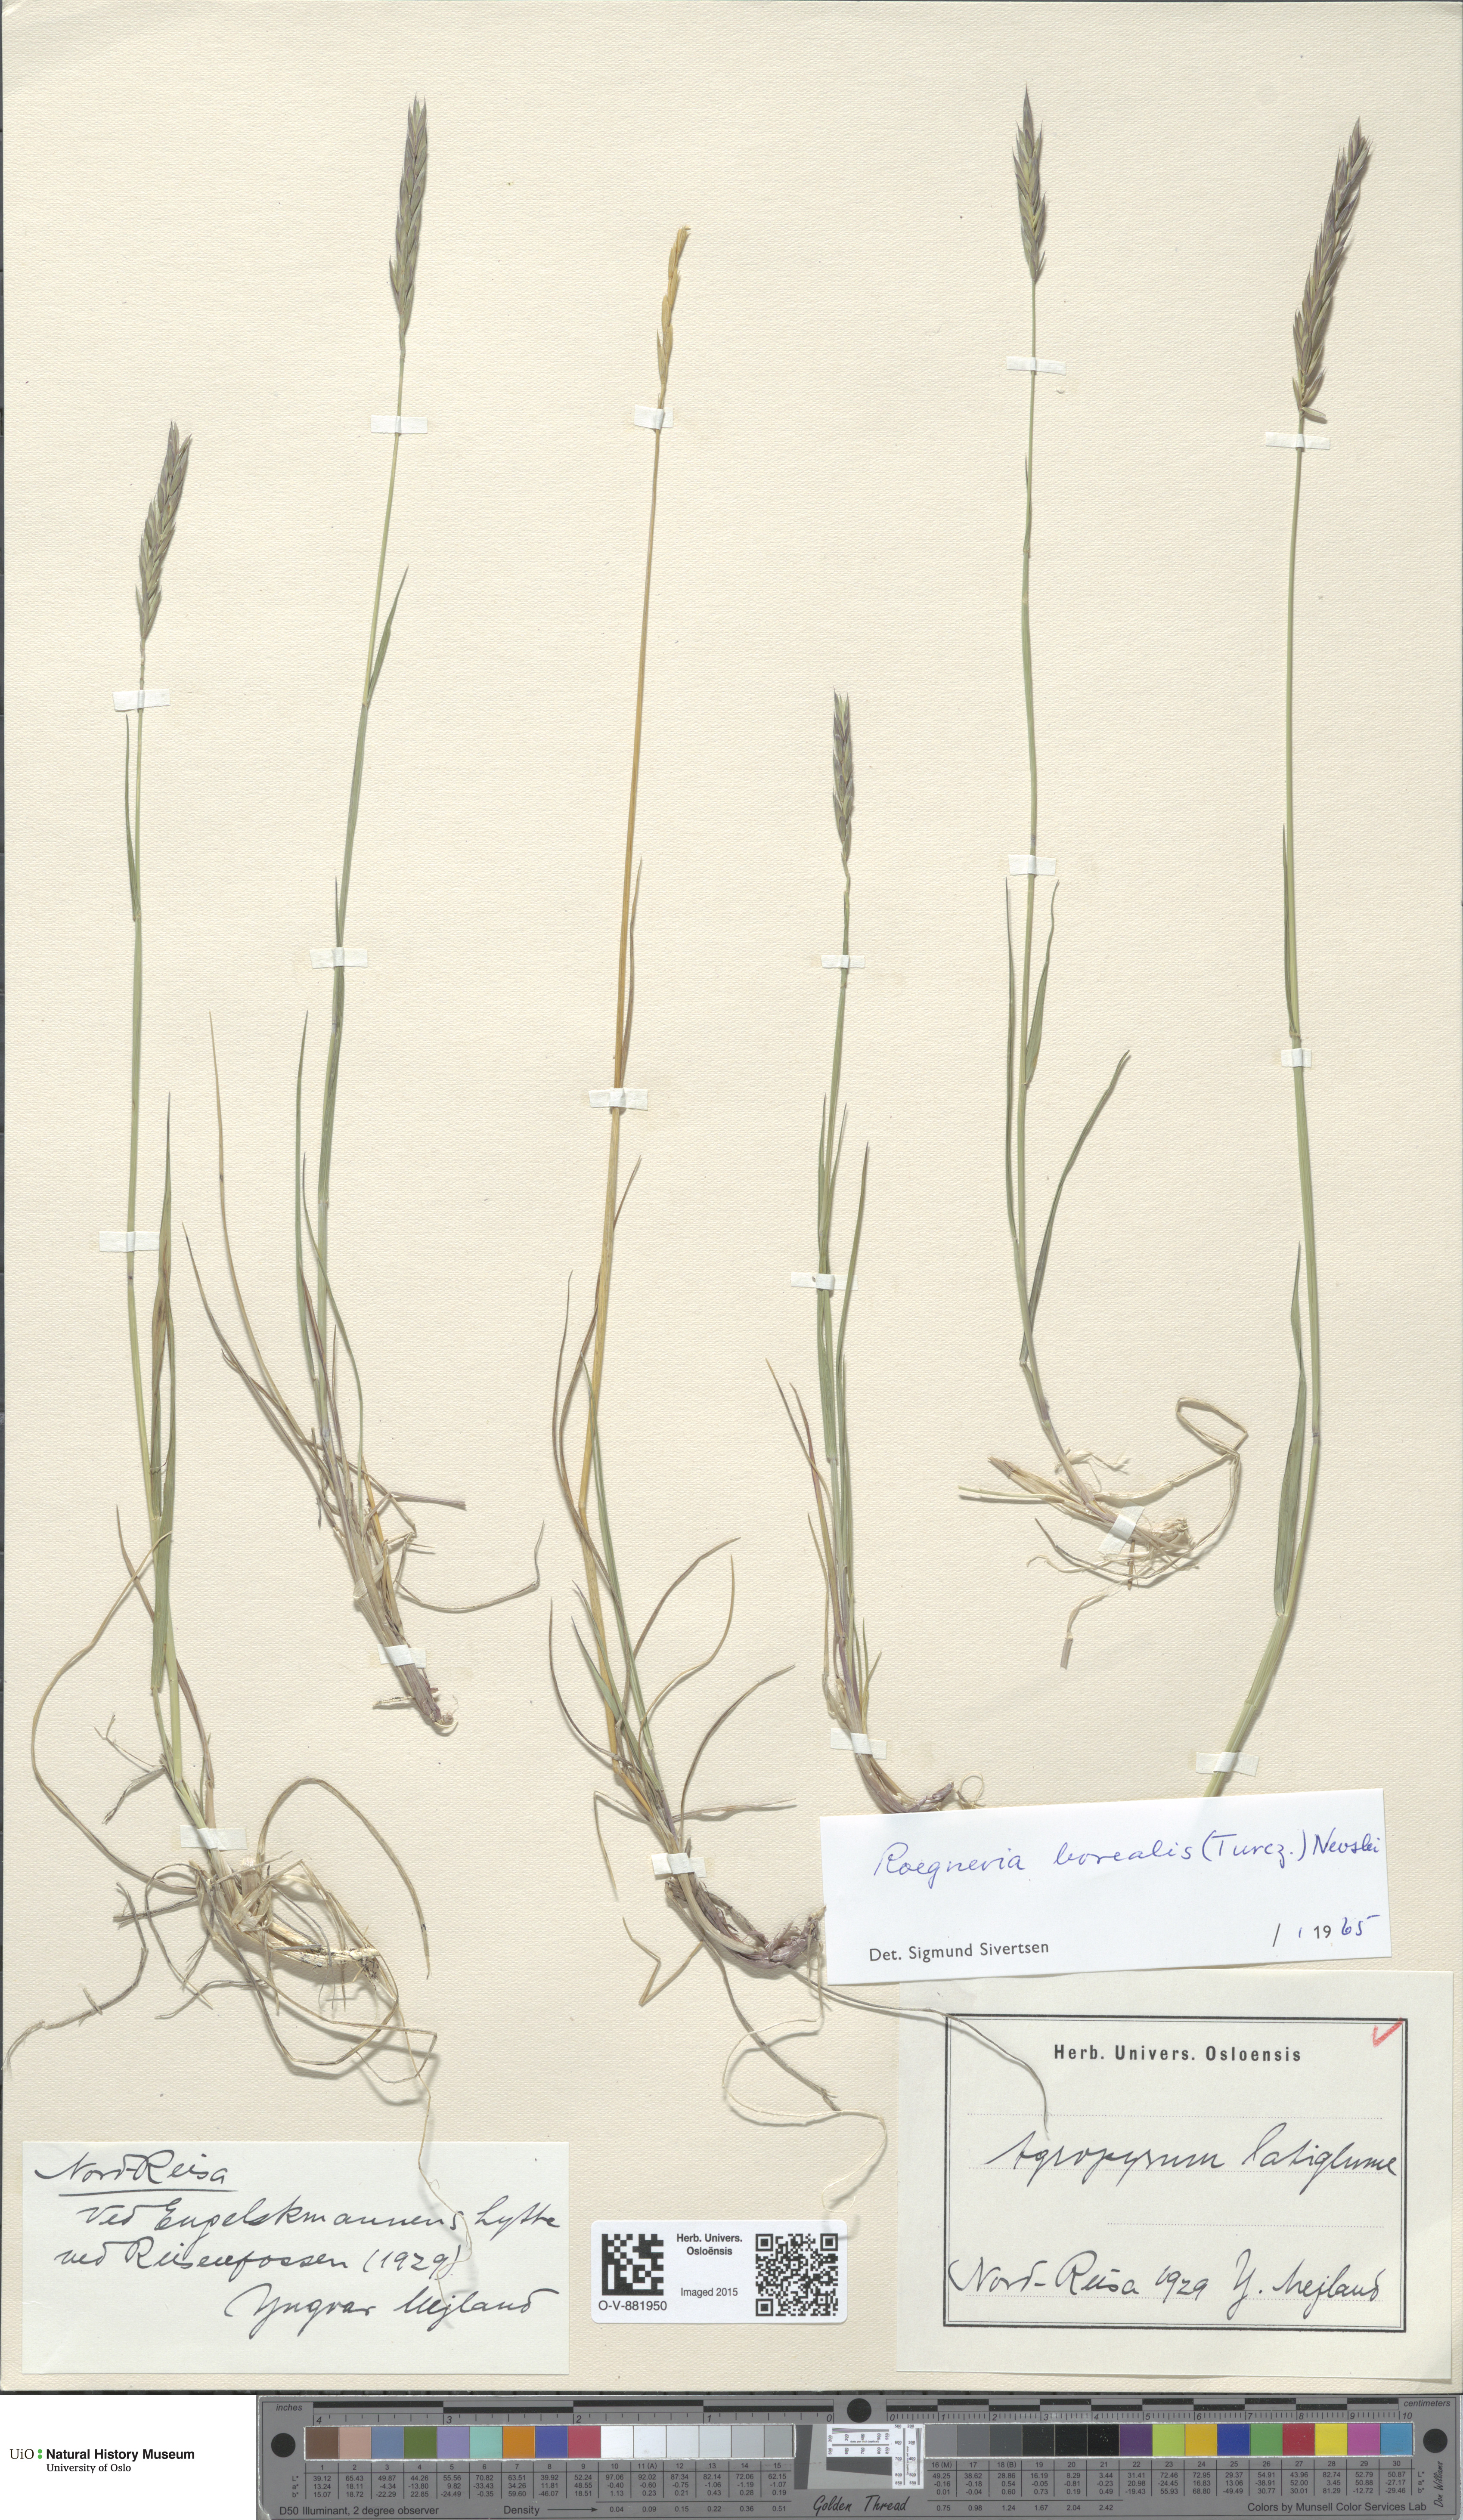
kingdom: Plantae
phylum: Tracheophyta
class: Liliopsida
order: Poales
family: Poaceae
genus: Elymus
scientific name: Elymus macrourus
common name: Northern wheatgrass
